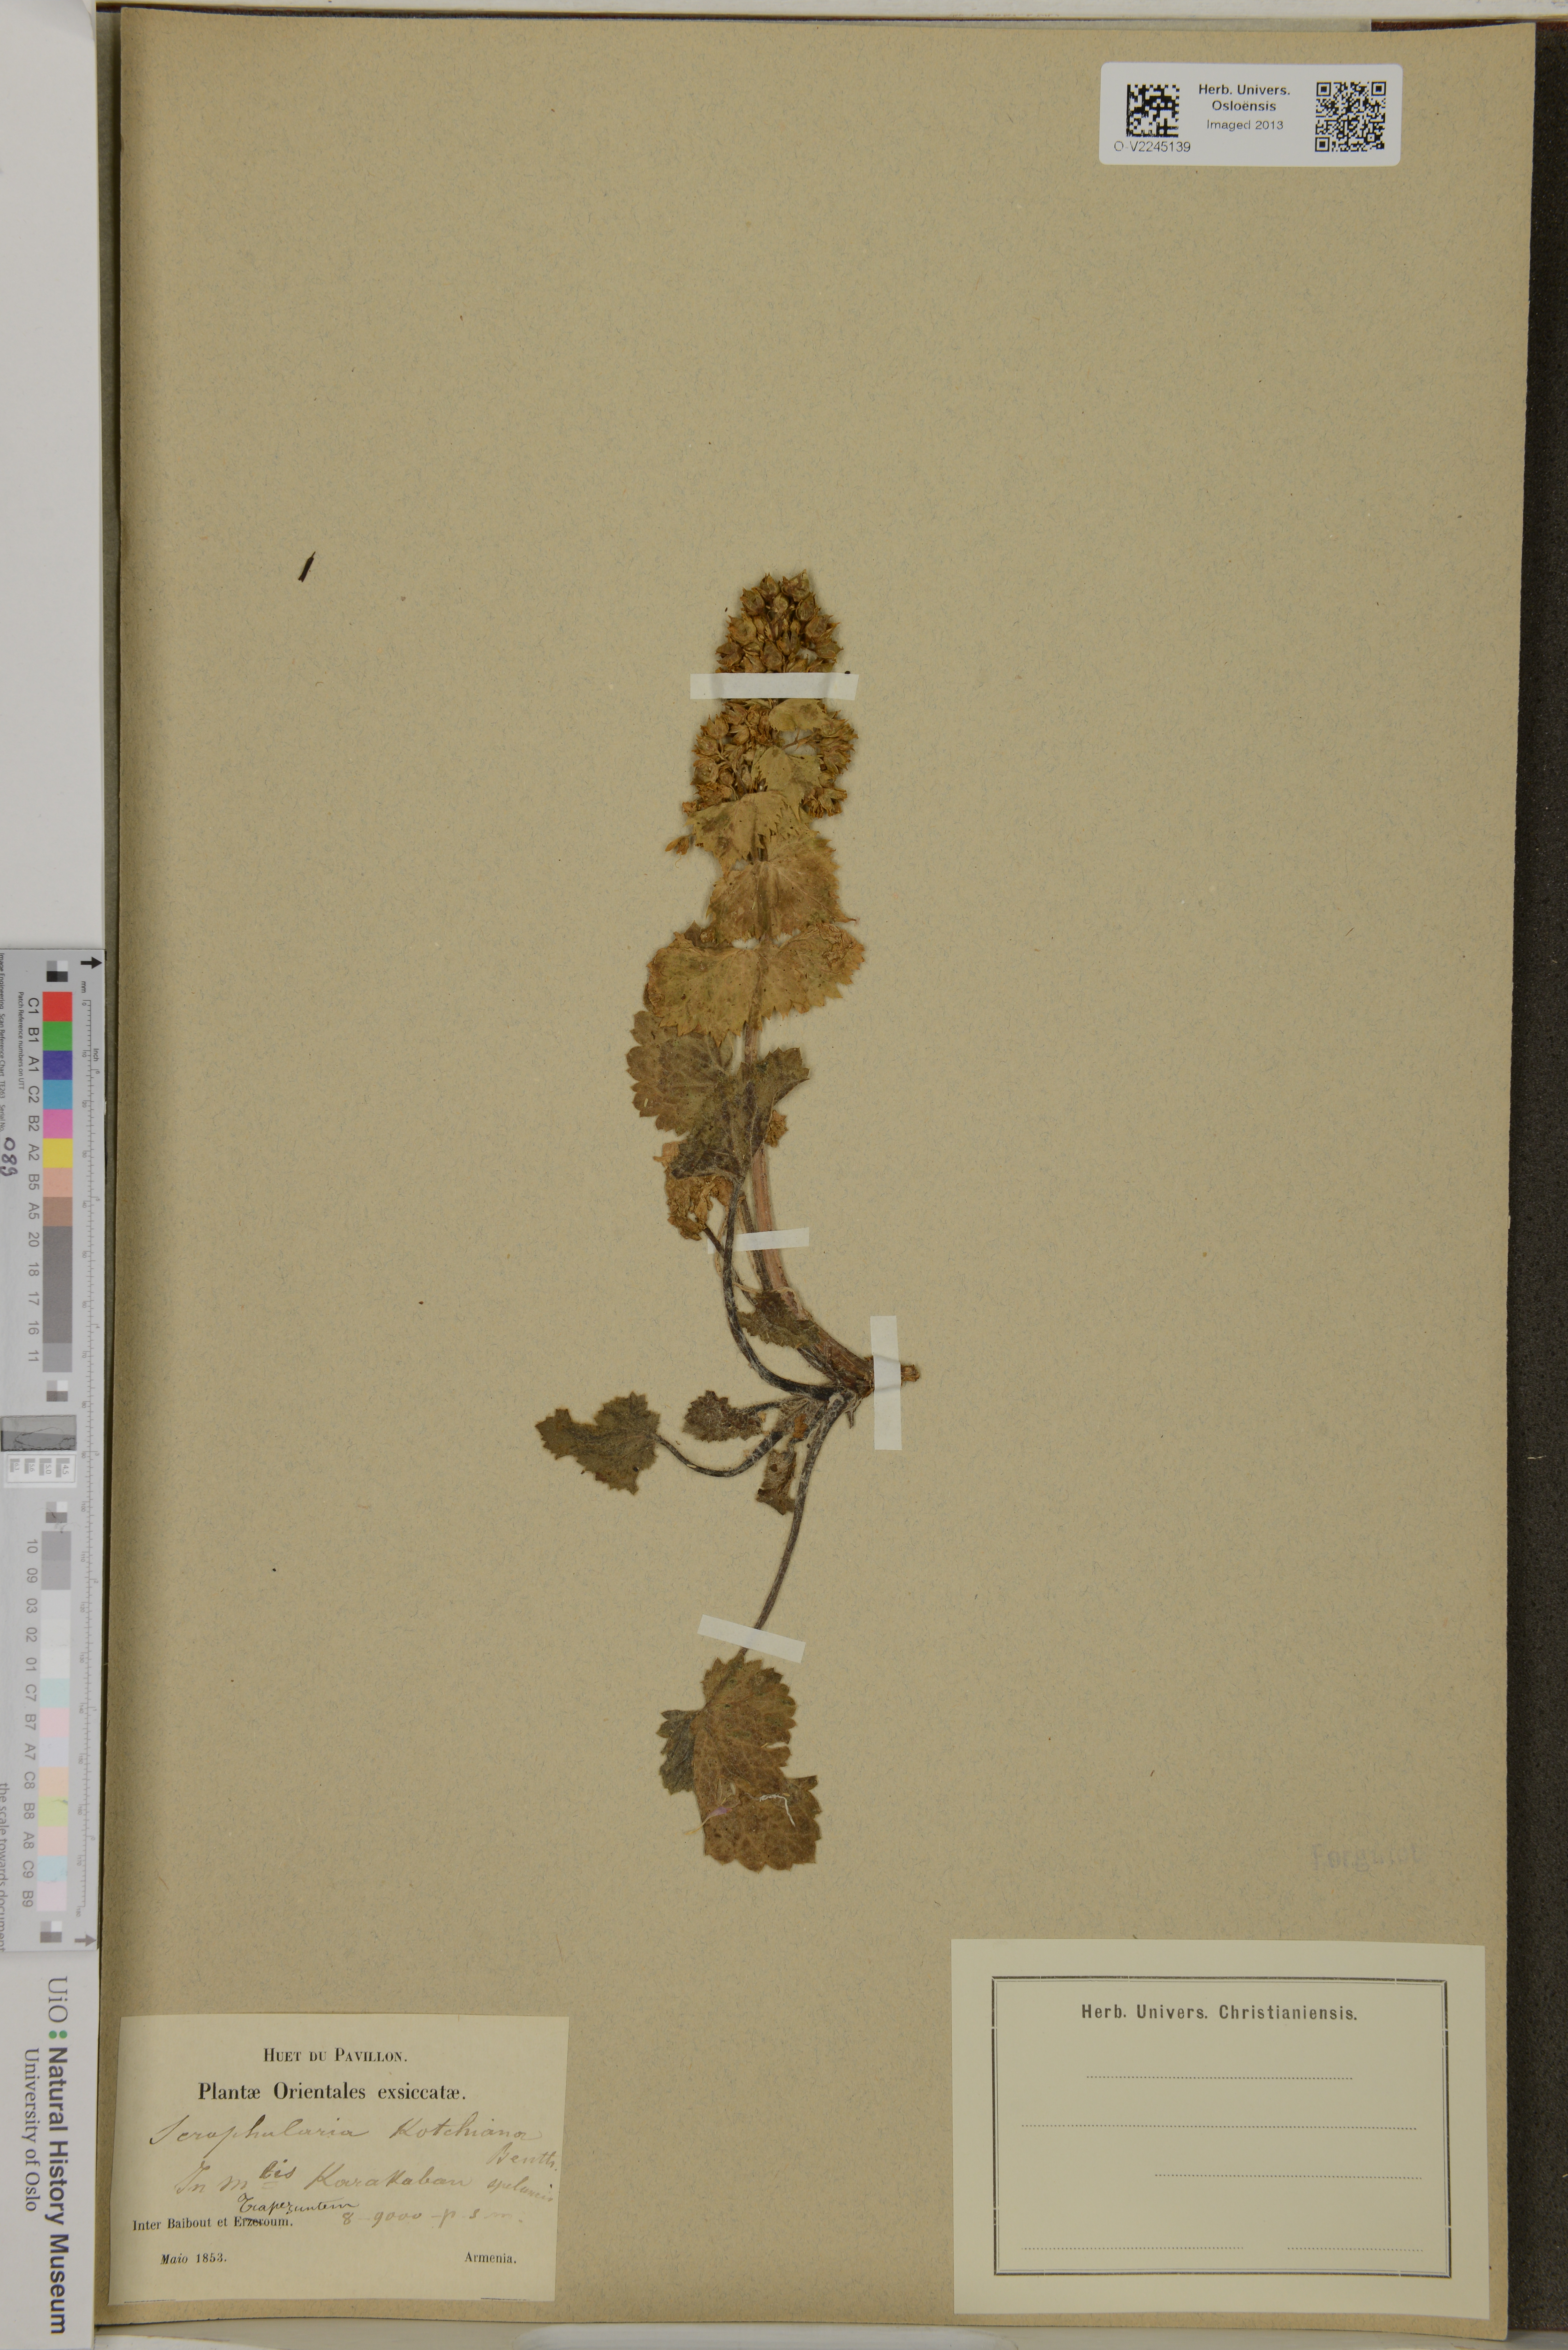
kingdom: Plantae
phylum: Tracheophyta
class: Magnoliopsida
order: Lamiales
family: Scrophulariaceae
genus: Scrophularia
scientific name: Scrophularia kotschyana
